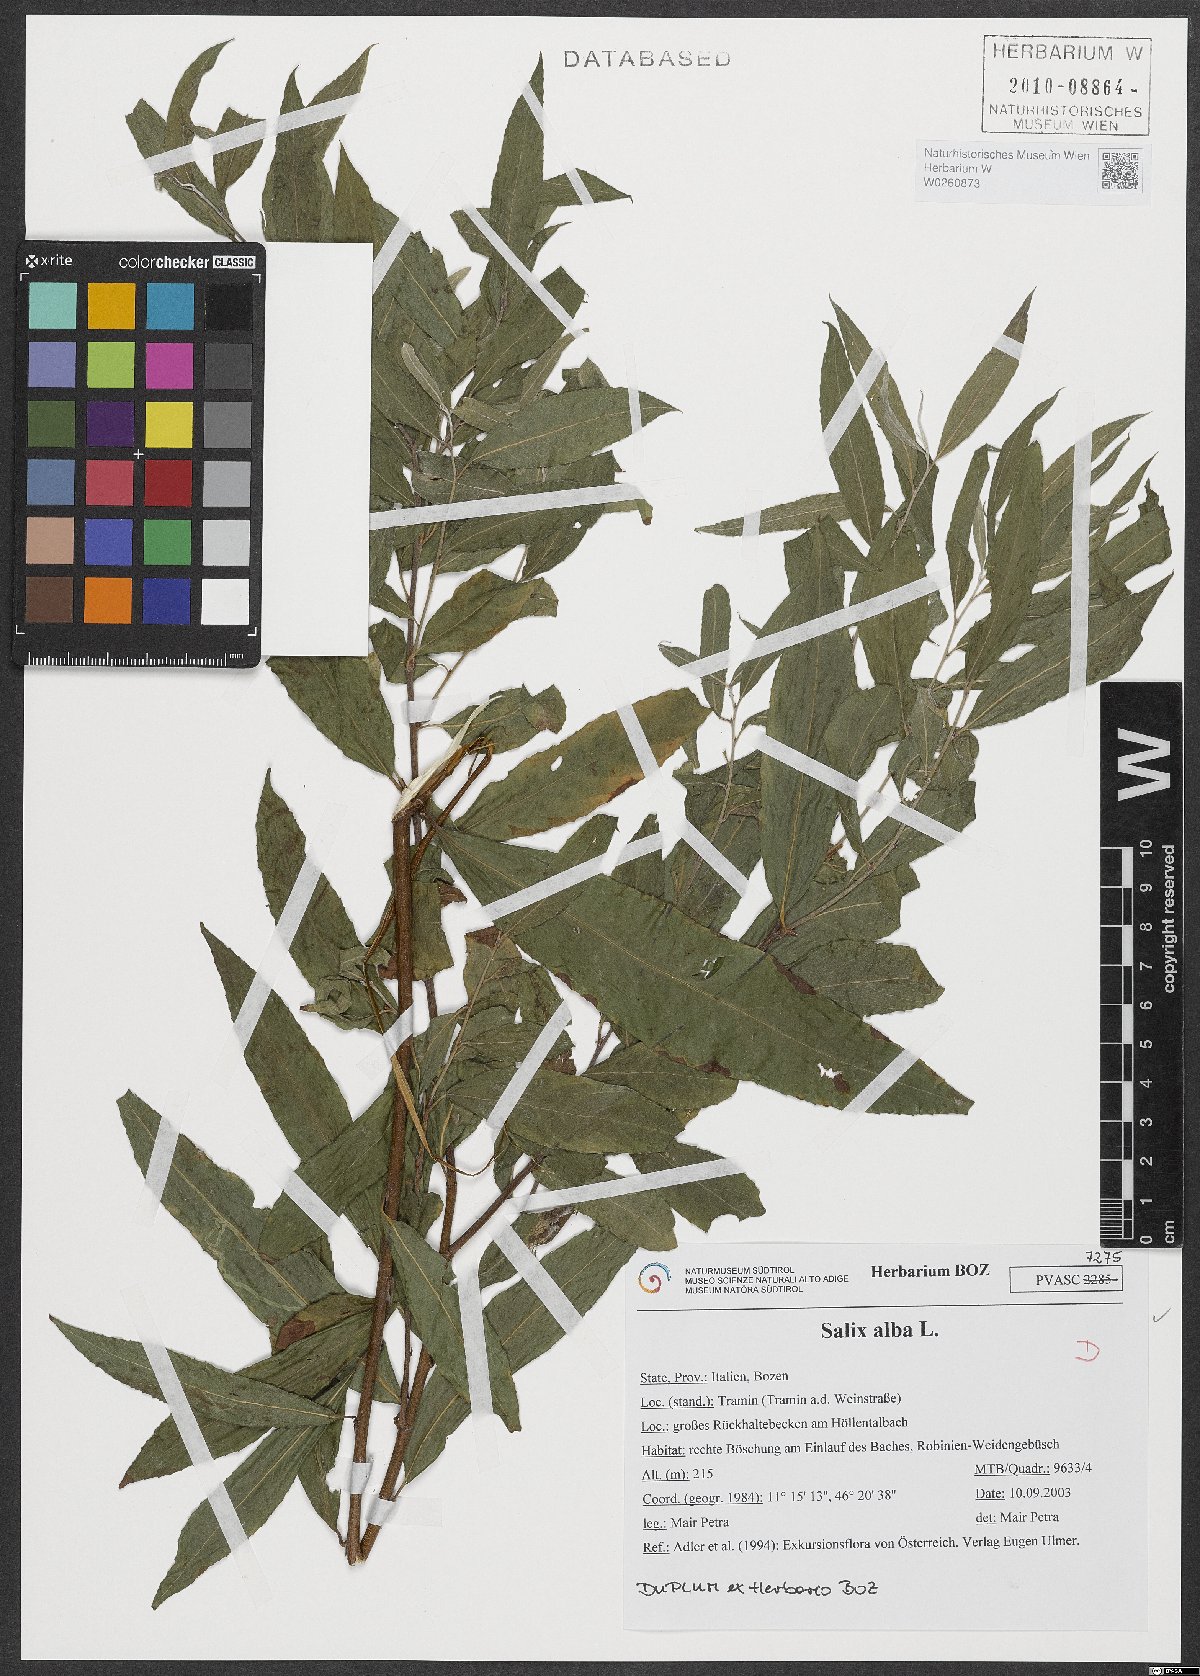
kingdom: Plantae
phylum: Tracheophyta
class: Magnoliopsida
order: Malpighiales
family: Salicaceae
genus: Salix
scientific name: Salix alba
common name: White willow
